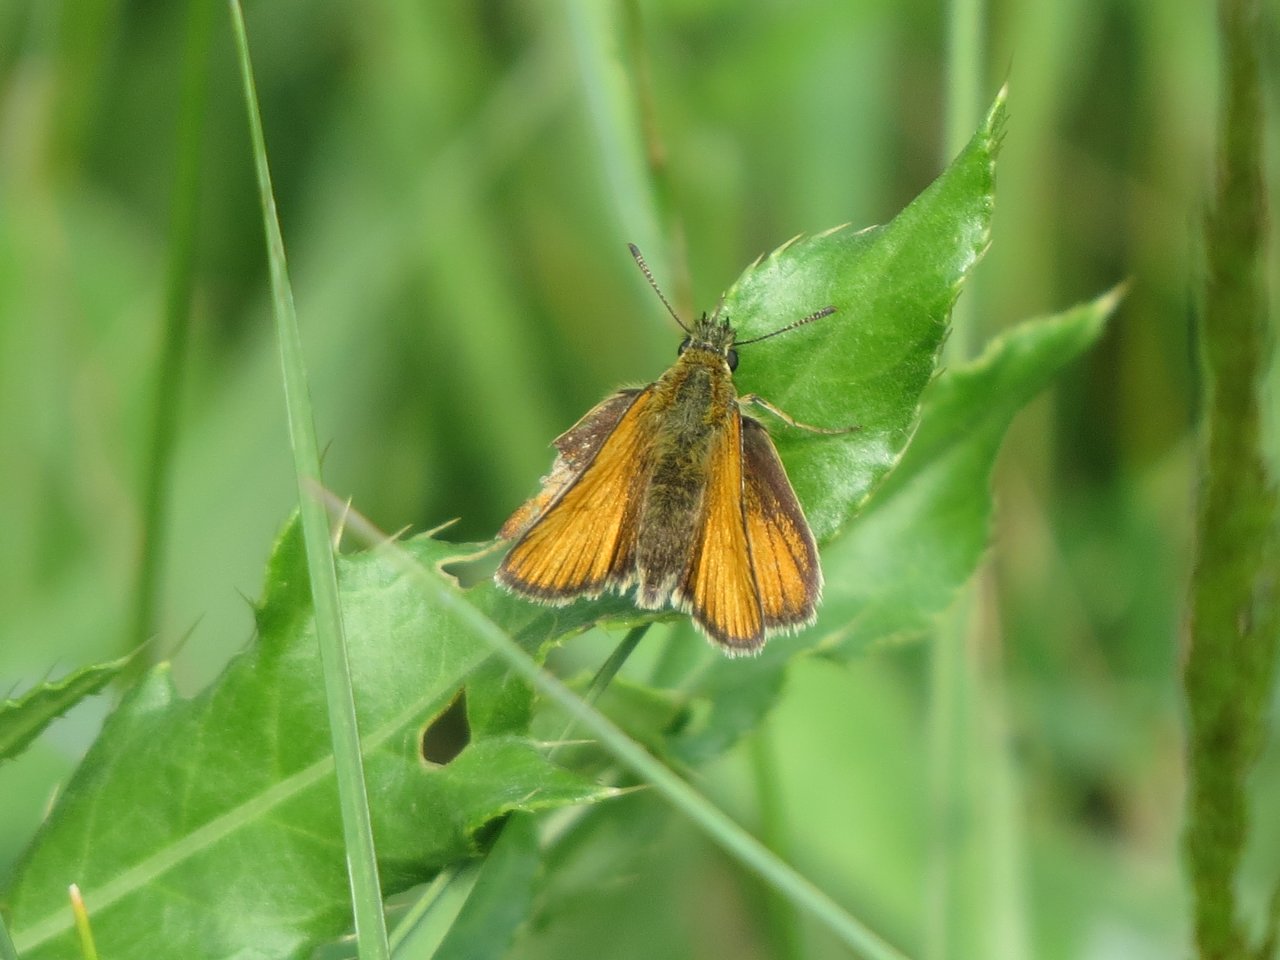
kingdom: Animalia
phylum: Arthropoda
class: Insecta
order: Lepidoptera
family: Hesperiidae
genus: Thymelicus
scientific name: Thymelicus lineola
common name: European Skipper
